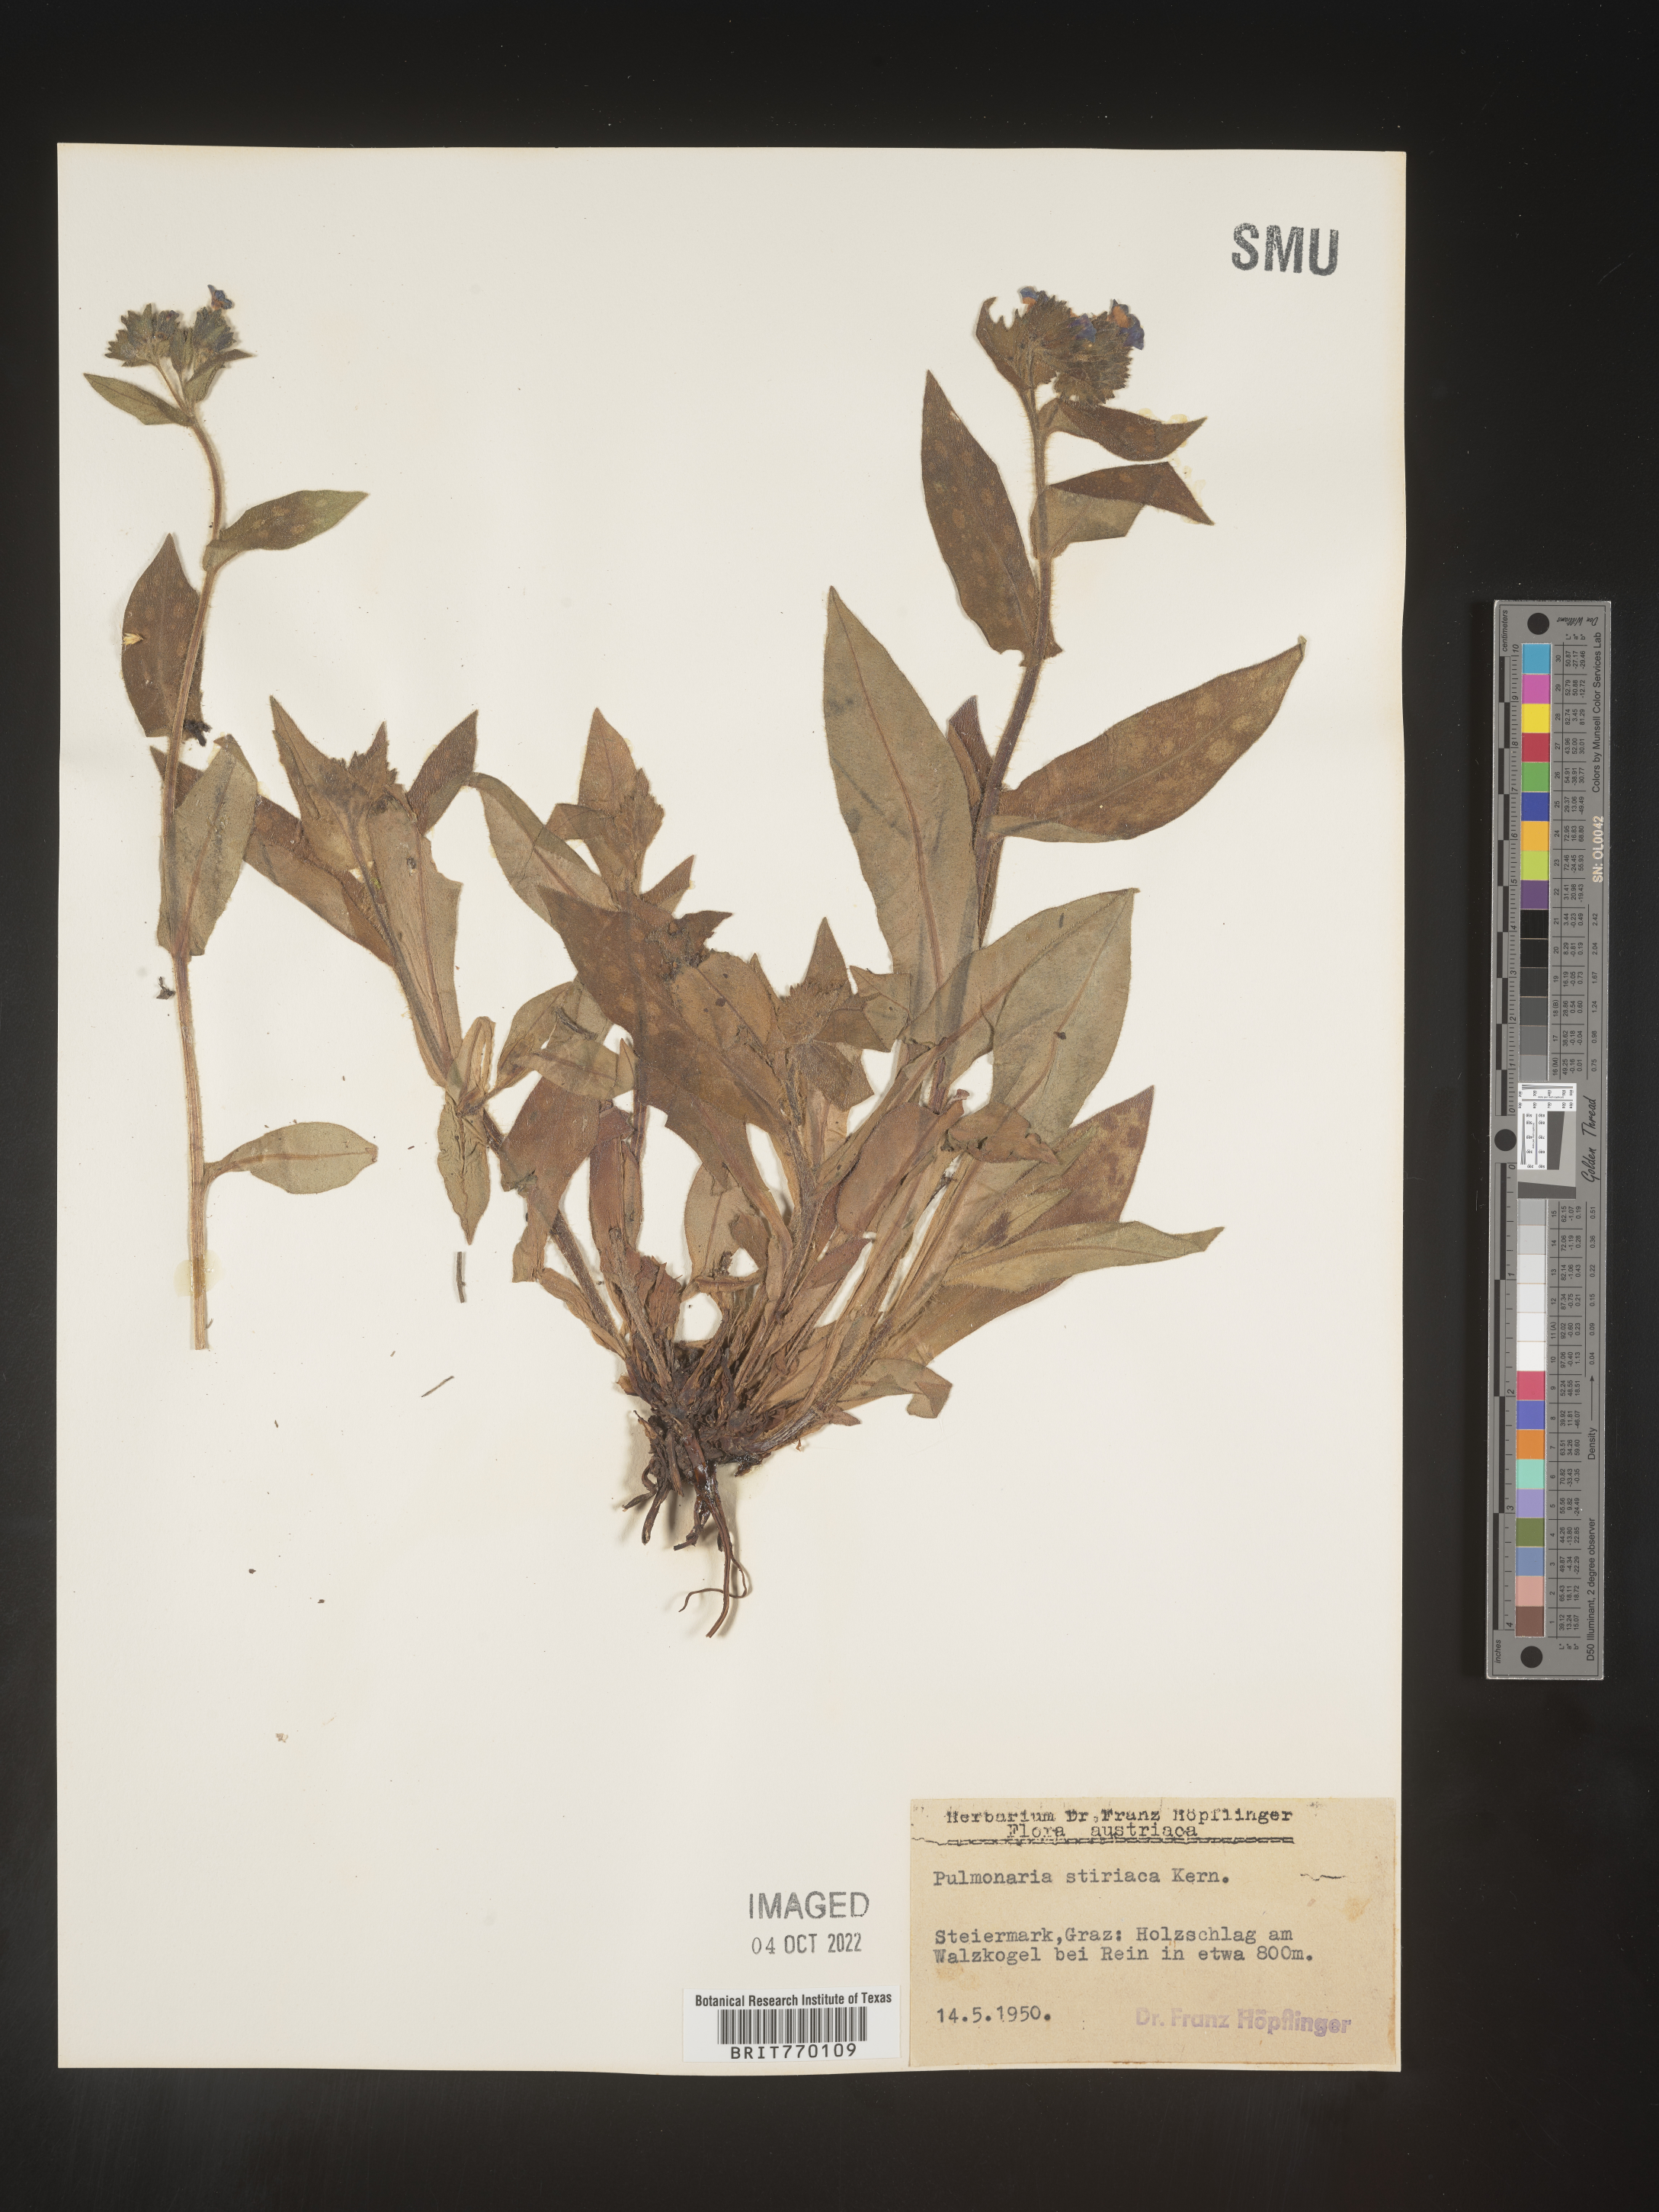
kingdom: Plantae
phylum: Tracheophyta
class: Magnoliopsida
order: Boraginales
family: Boraginaceae
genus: Pulmonaria
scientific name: Pulmonaria
